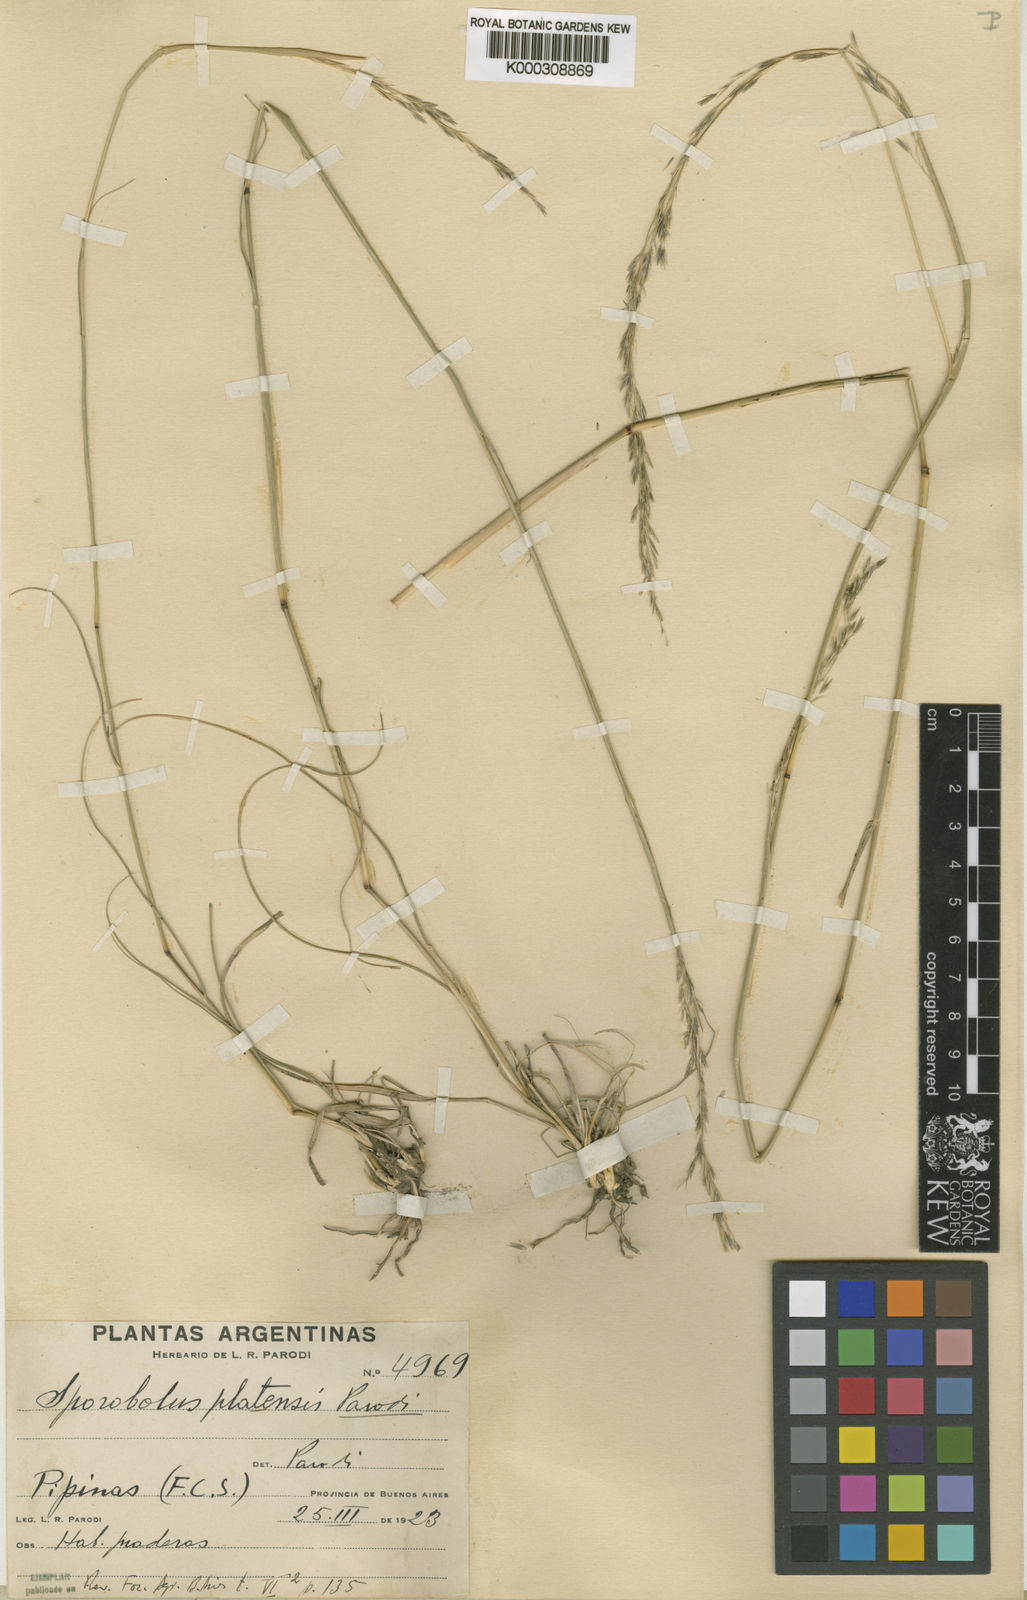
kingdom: Plantae
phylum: Tracheophyta
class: Liliopsida
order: Poales
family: Poaceae
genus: Sporobolus
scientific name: Sporobolus platensis
